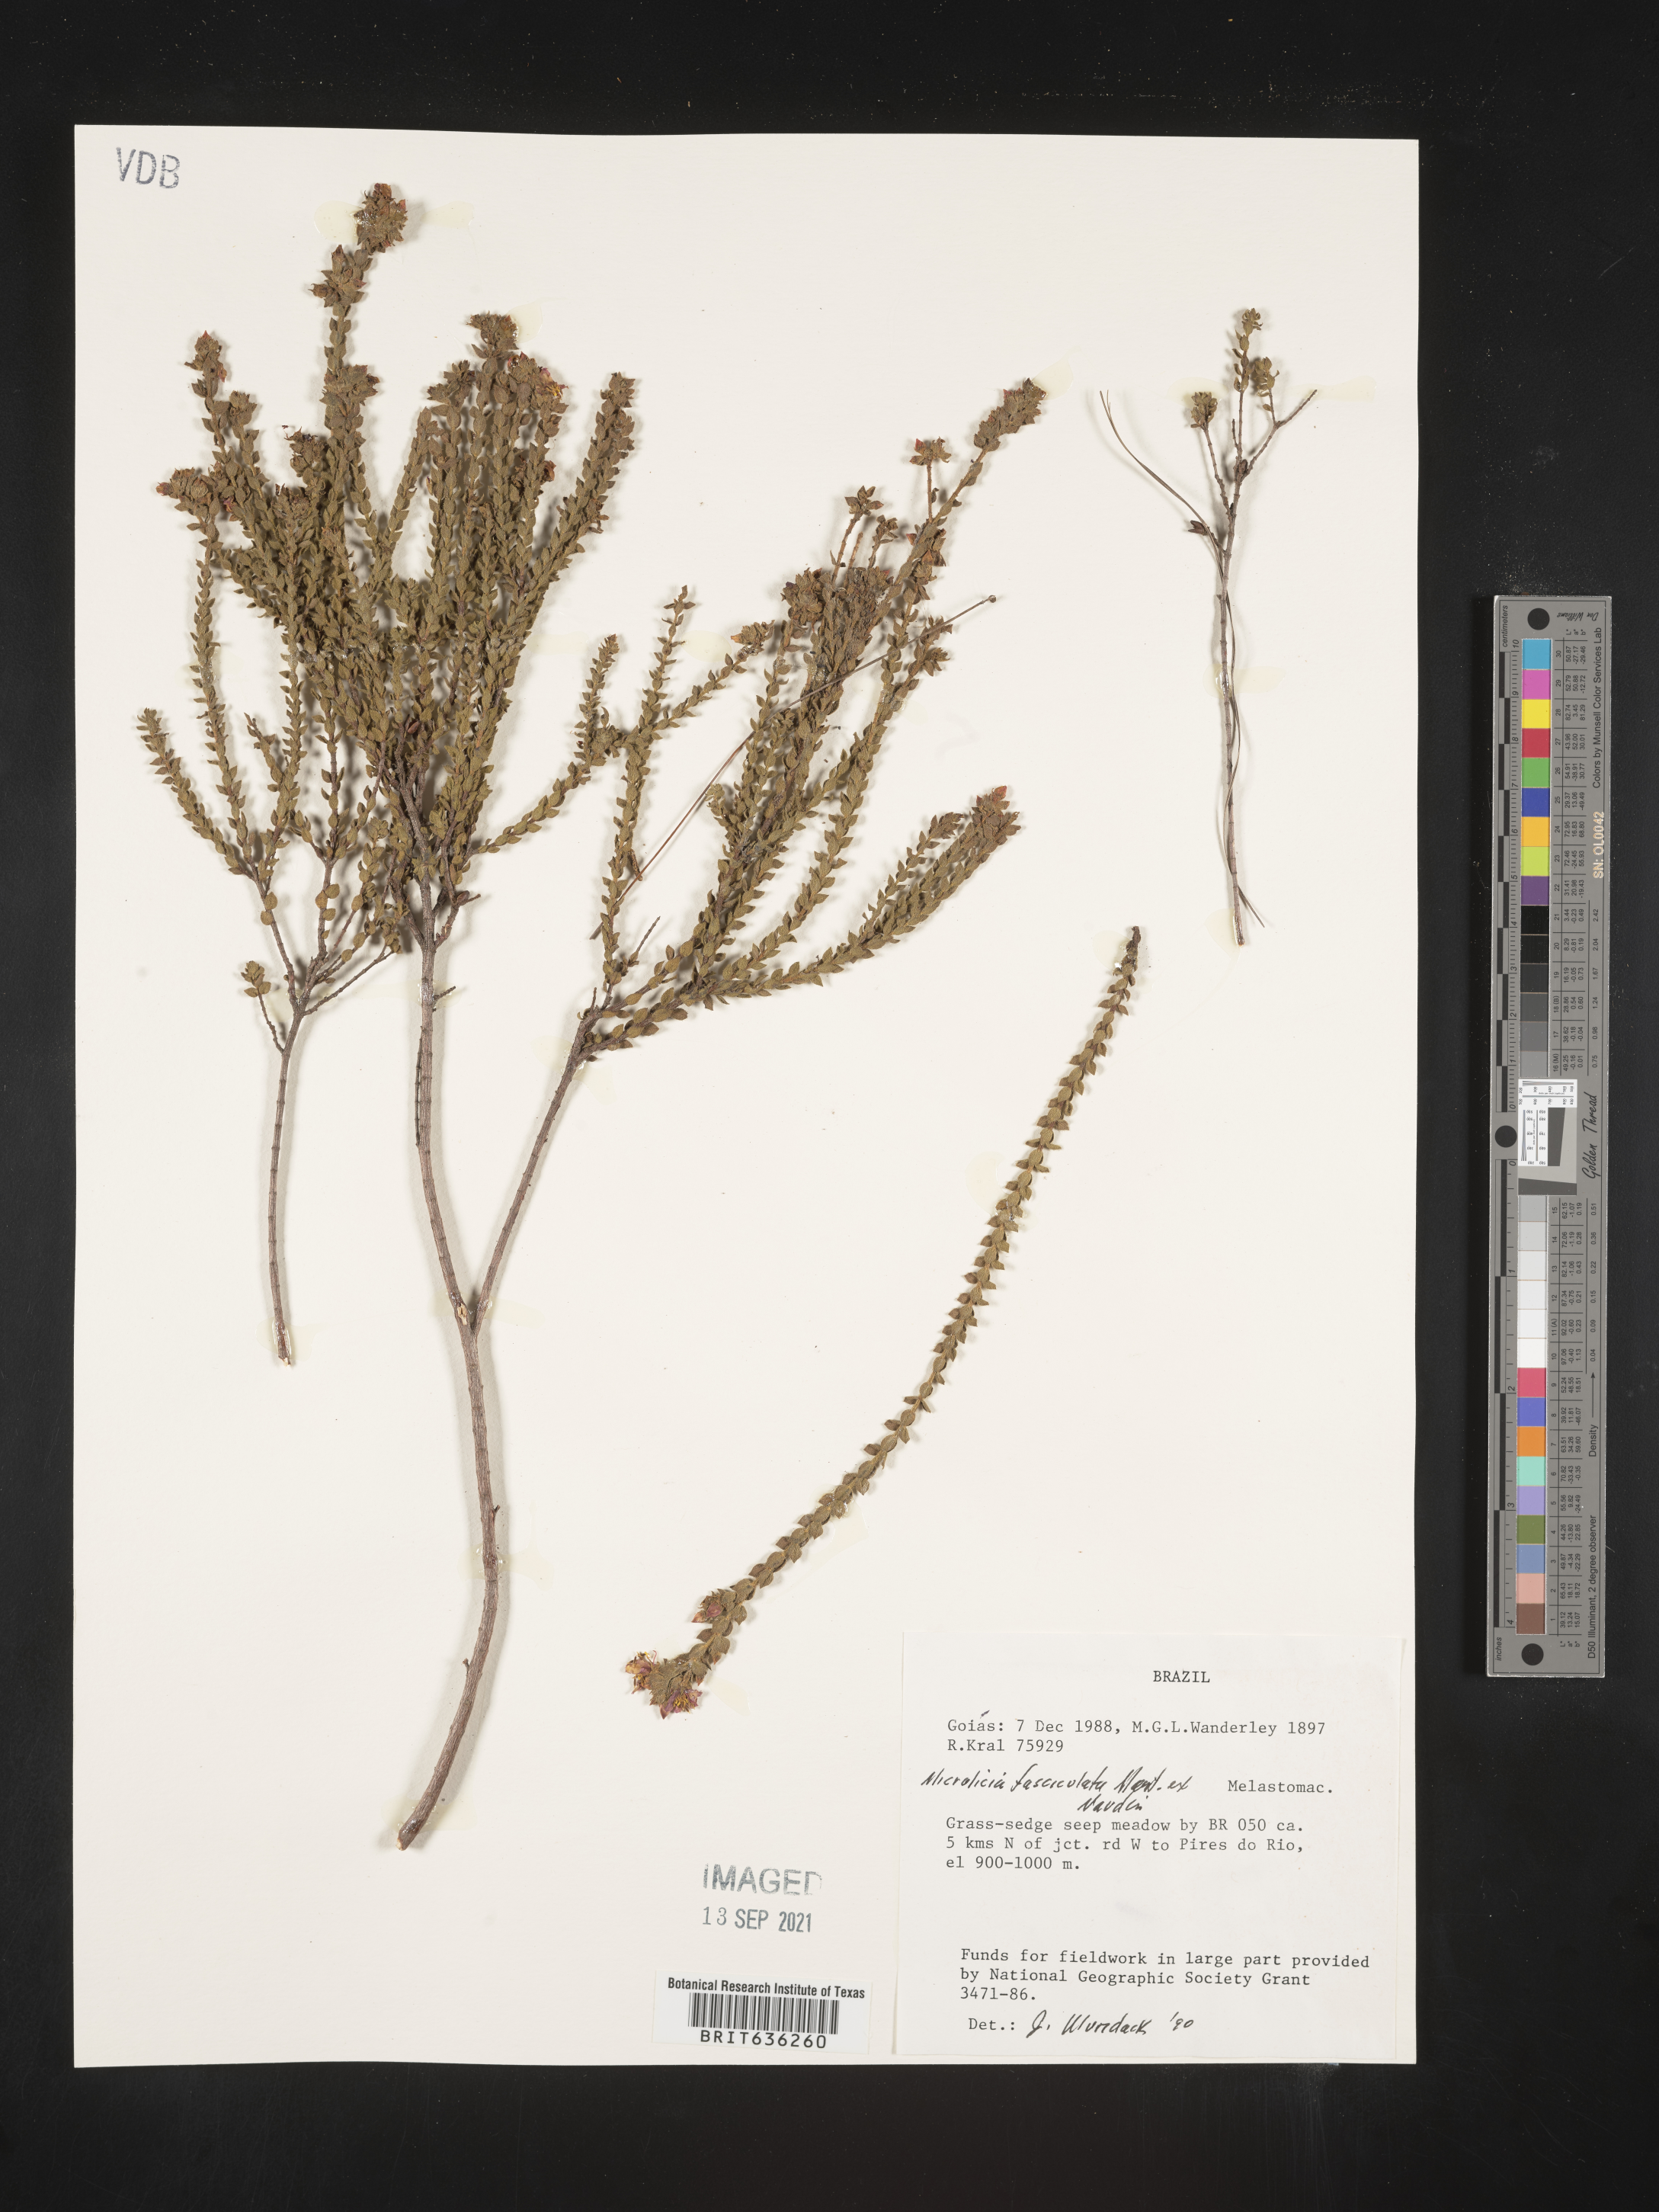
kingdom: Plantae
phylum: Tracheophyta
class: Magnoliopsida
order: Myrtales
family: Melastomataceae
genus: Microlicia
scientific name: Microlicia
